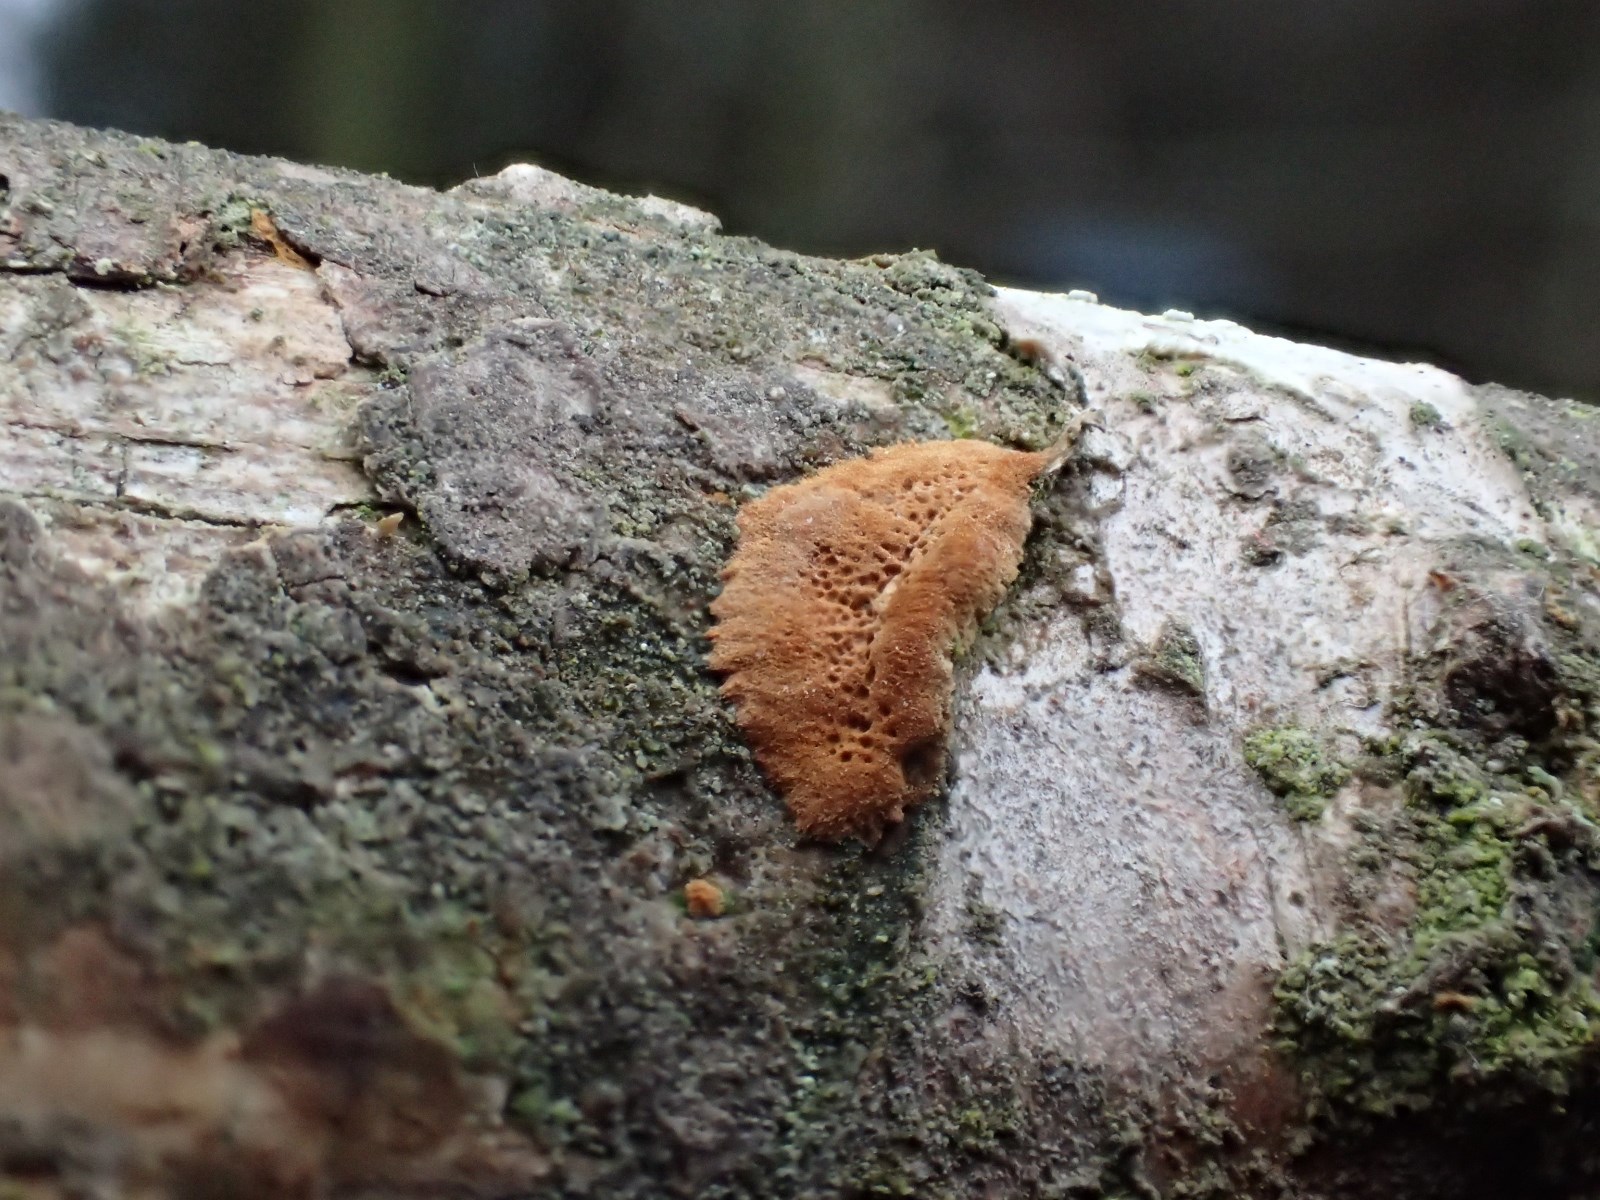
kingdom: Fungi
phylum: Basidiomycota
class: Agaricomycetes
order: Hymenochaetales
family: Hymenochaetaceae
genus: Fuscoporia
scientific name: Fuscoporia ferrea
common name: skorpe-ildporesvamp
